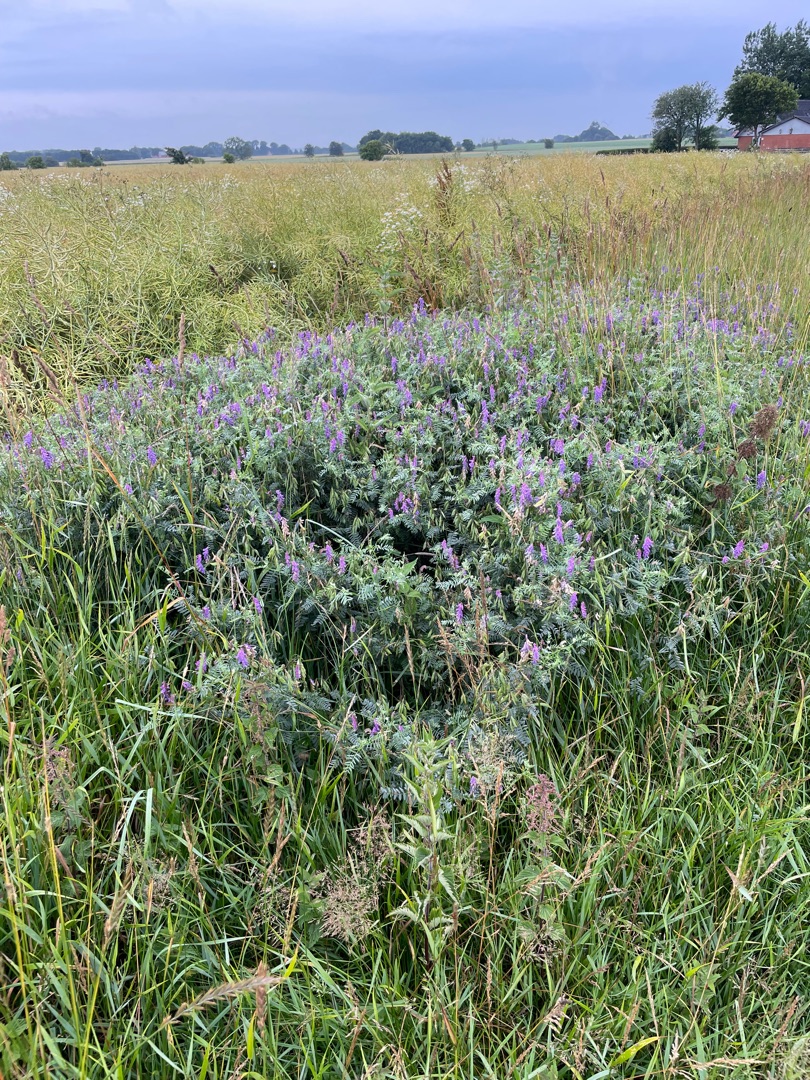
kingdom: Plantae
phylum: Tracheophyta
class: Magnoliopsida
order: Fabales
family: Fabaceae
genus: Vicia
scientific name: Vicia cracca
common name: Muse-vikke
